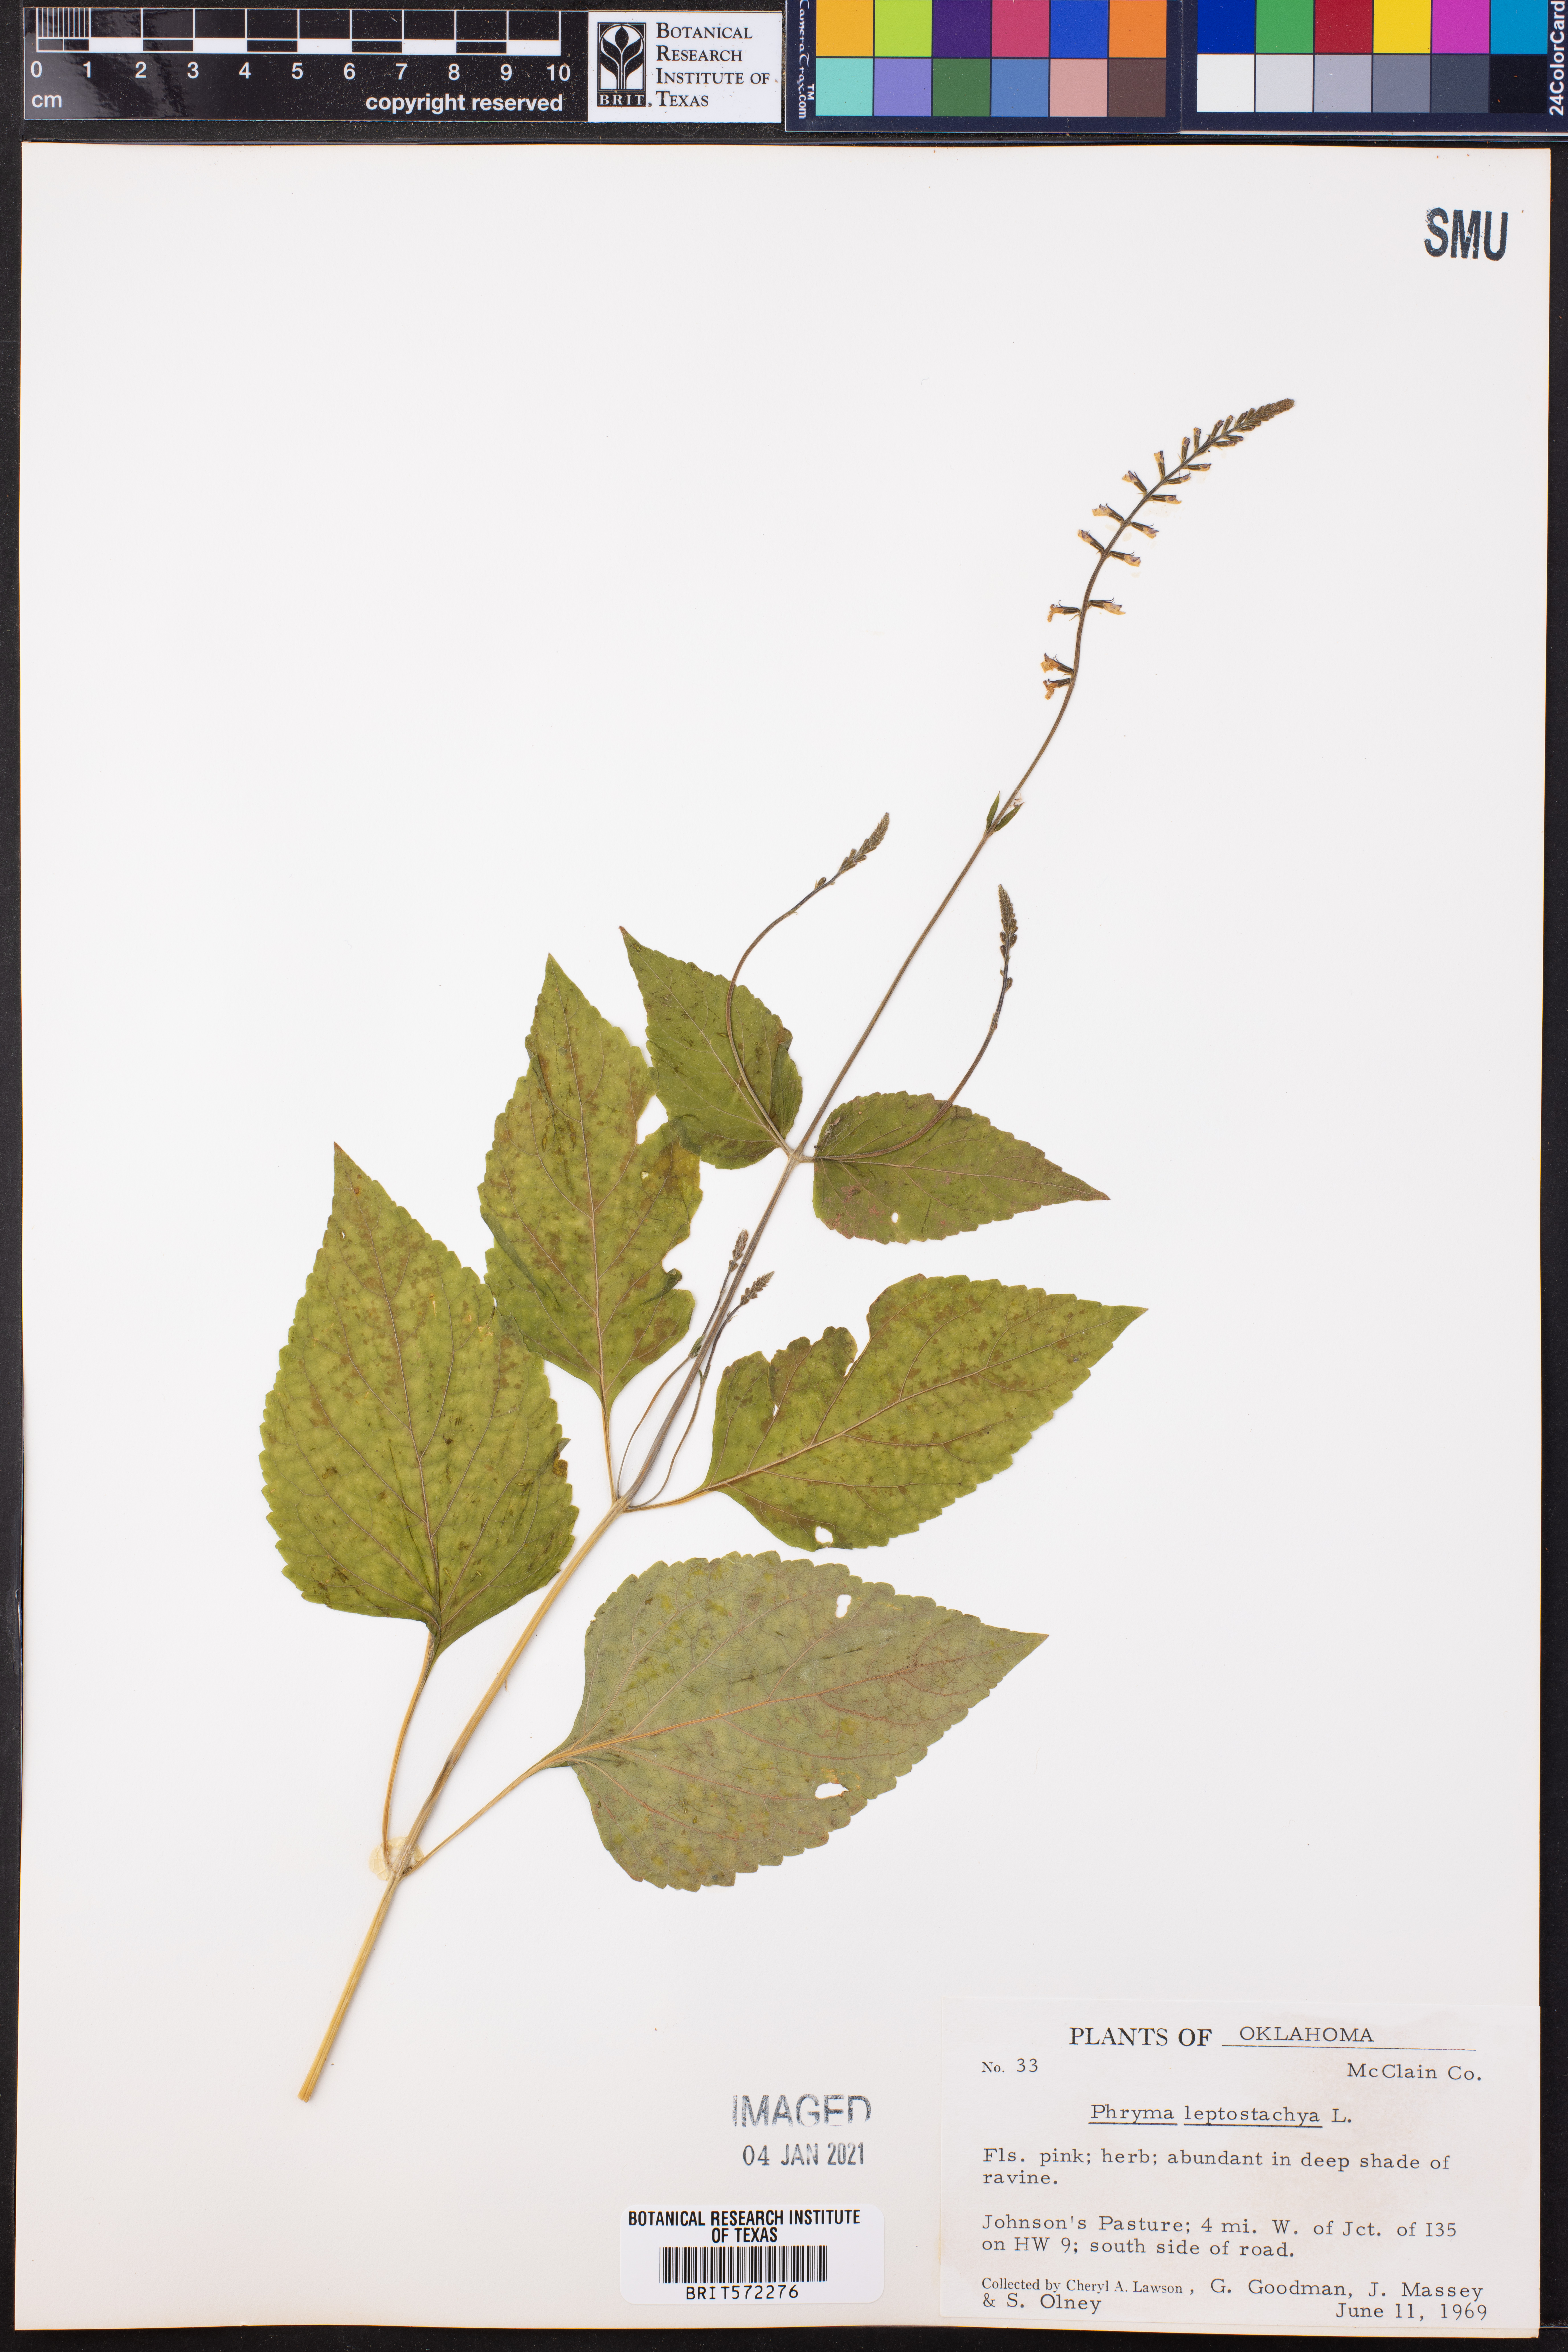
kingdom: Plantae
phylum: Tracheophyta
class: Magnoliopsida
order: Lamiales
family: Phrymaceae
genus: Phryma
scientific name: Phryma leptostachya
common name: American lopseed
